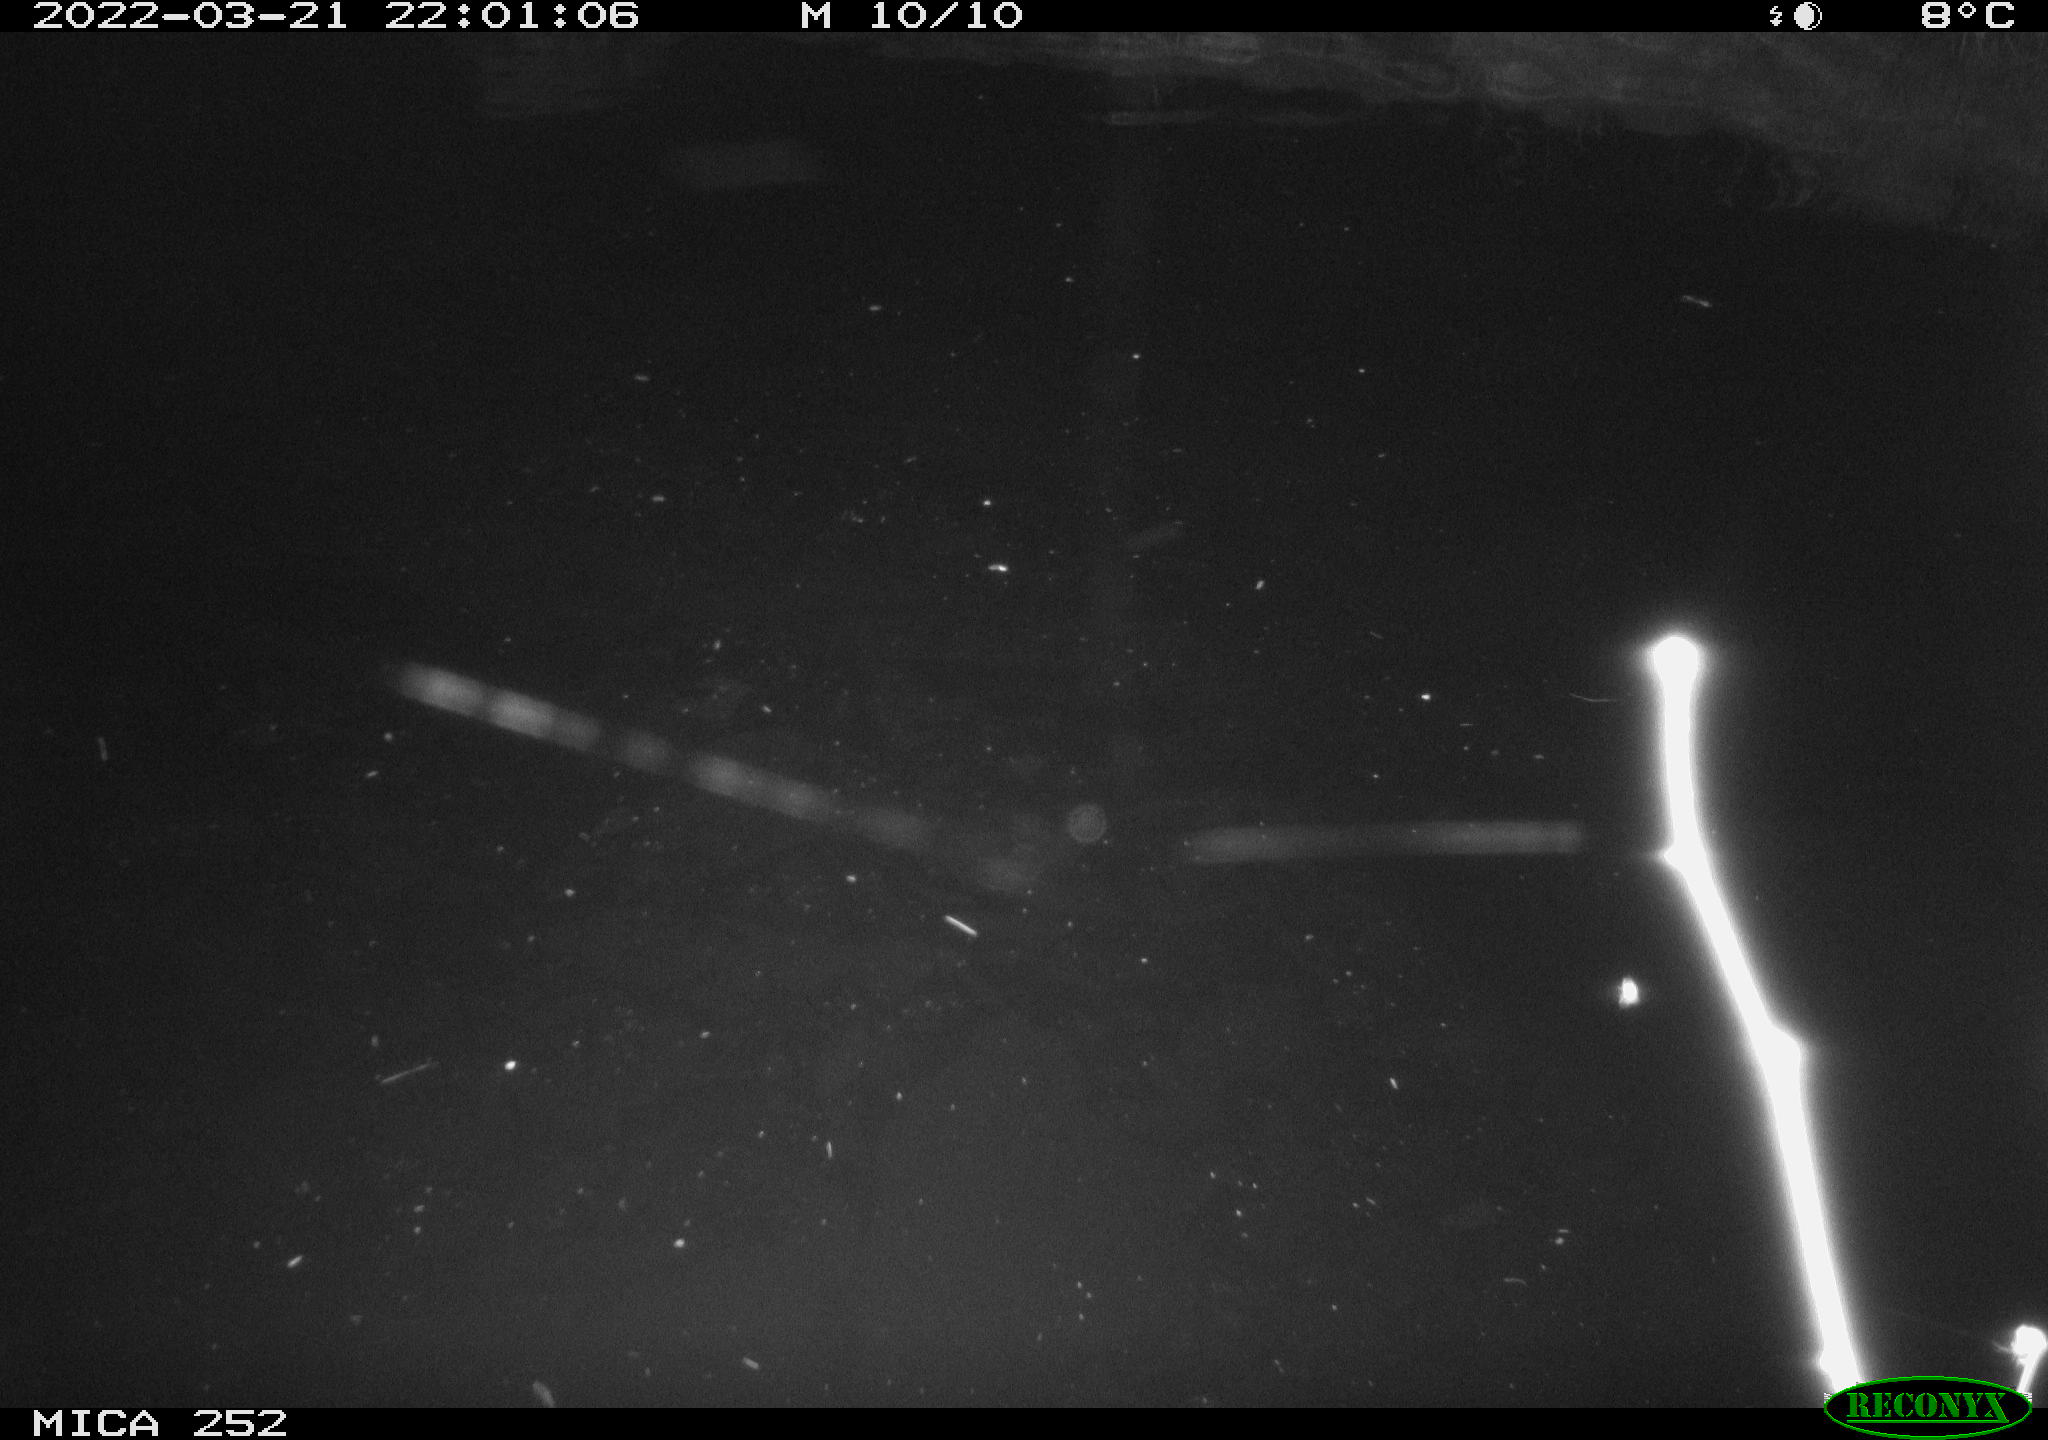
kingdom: Animalia
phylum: Chordata
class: Mammalia
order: Rodentia
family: Castoridae
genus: Castor
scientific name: Castor fiber
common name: Eurasian beaver
